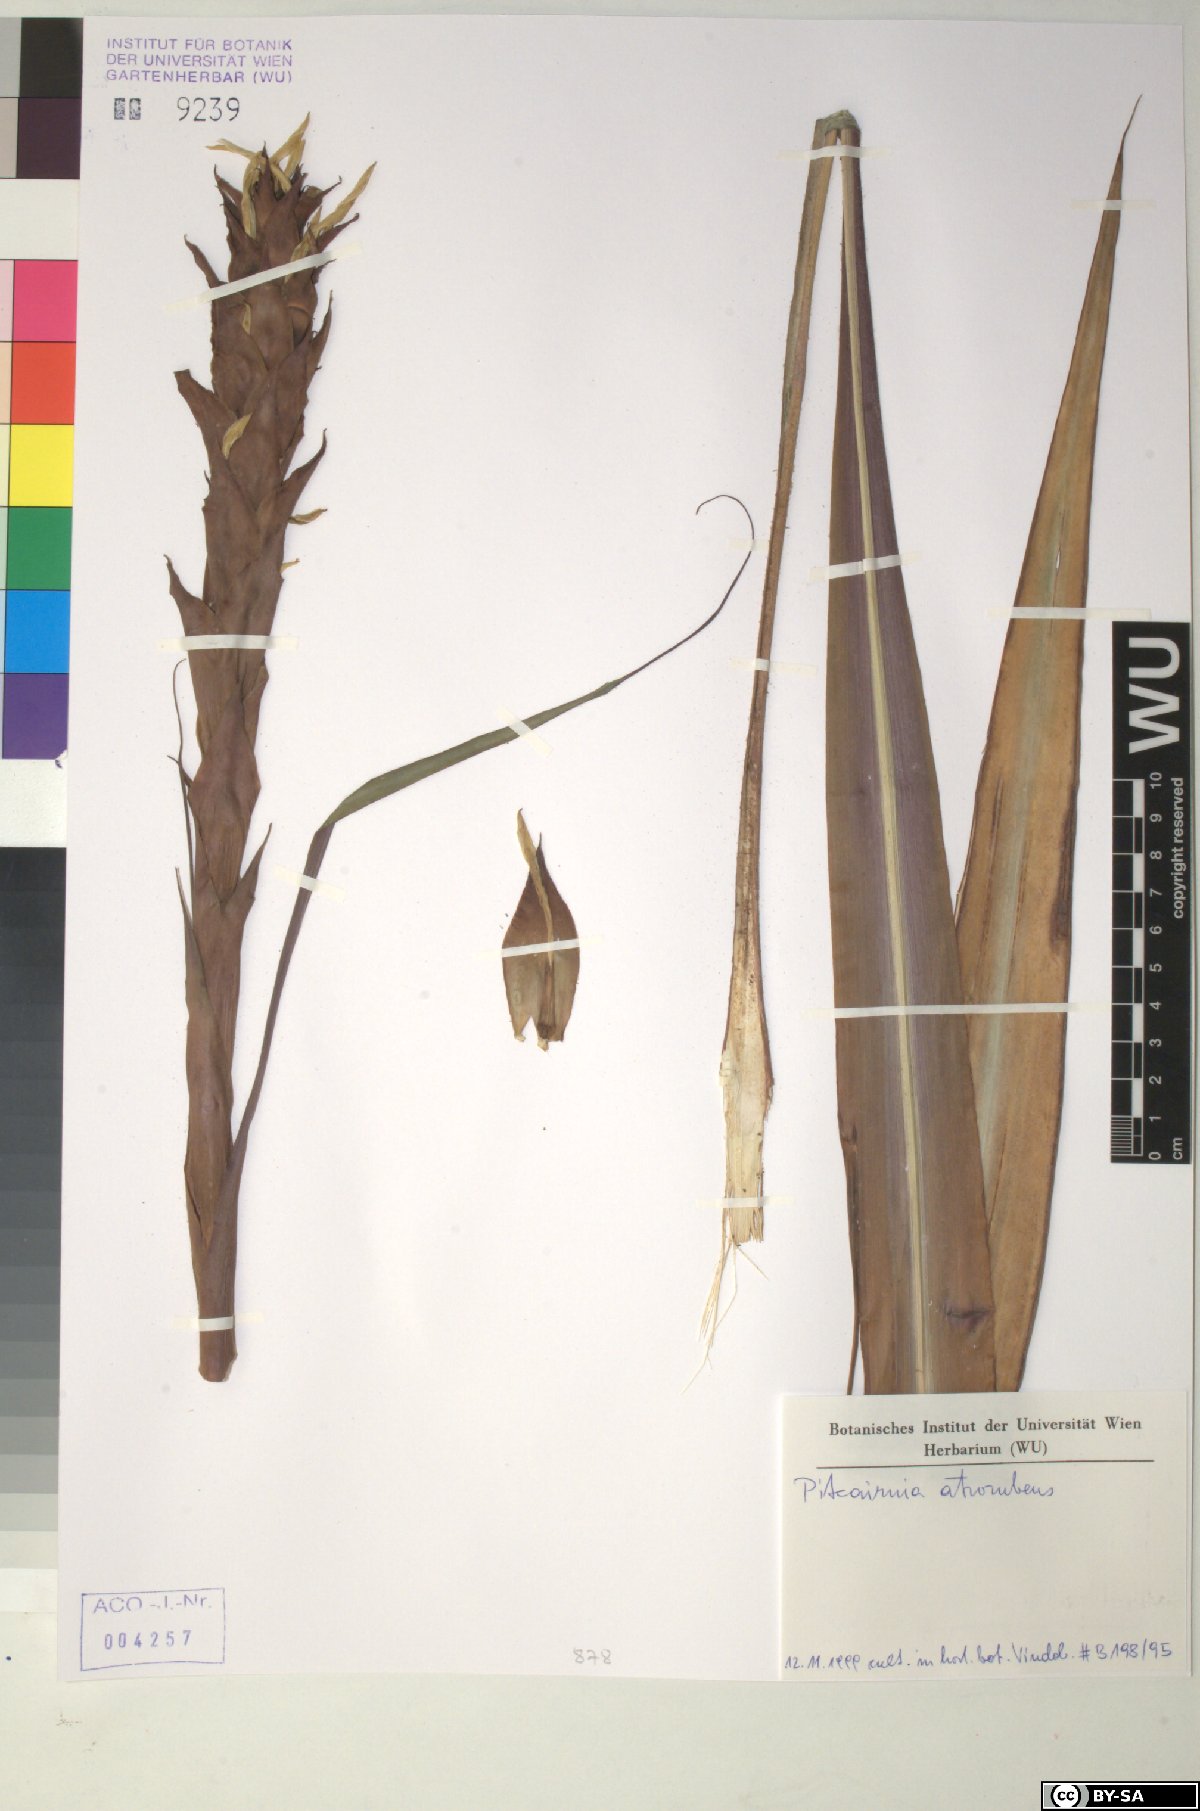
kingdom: Plantae
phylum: Tracheophyta
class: Liliopsida
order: Poales
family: Bromeliaceae
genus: Pitcairnia
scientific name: Pitcairnia atrorubens
